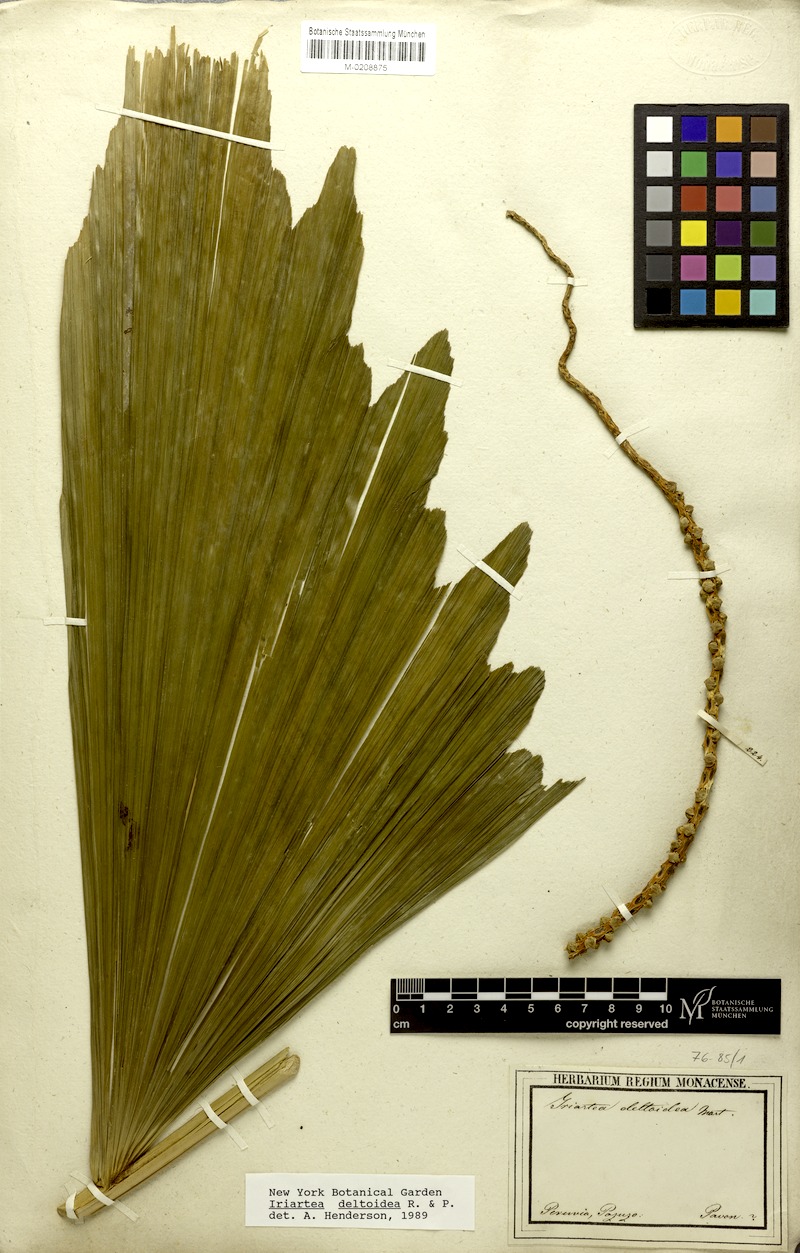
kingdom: Plantae
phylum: Tracheophyta
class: Liliopsida
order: Arecales
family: Arecaceae
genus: Iriartea
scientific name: Iriartea deltoidea
